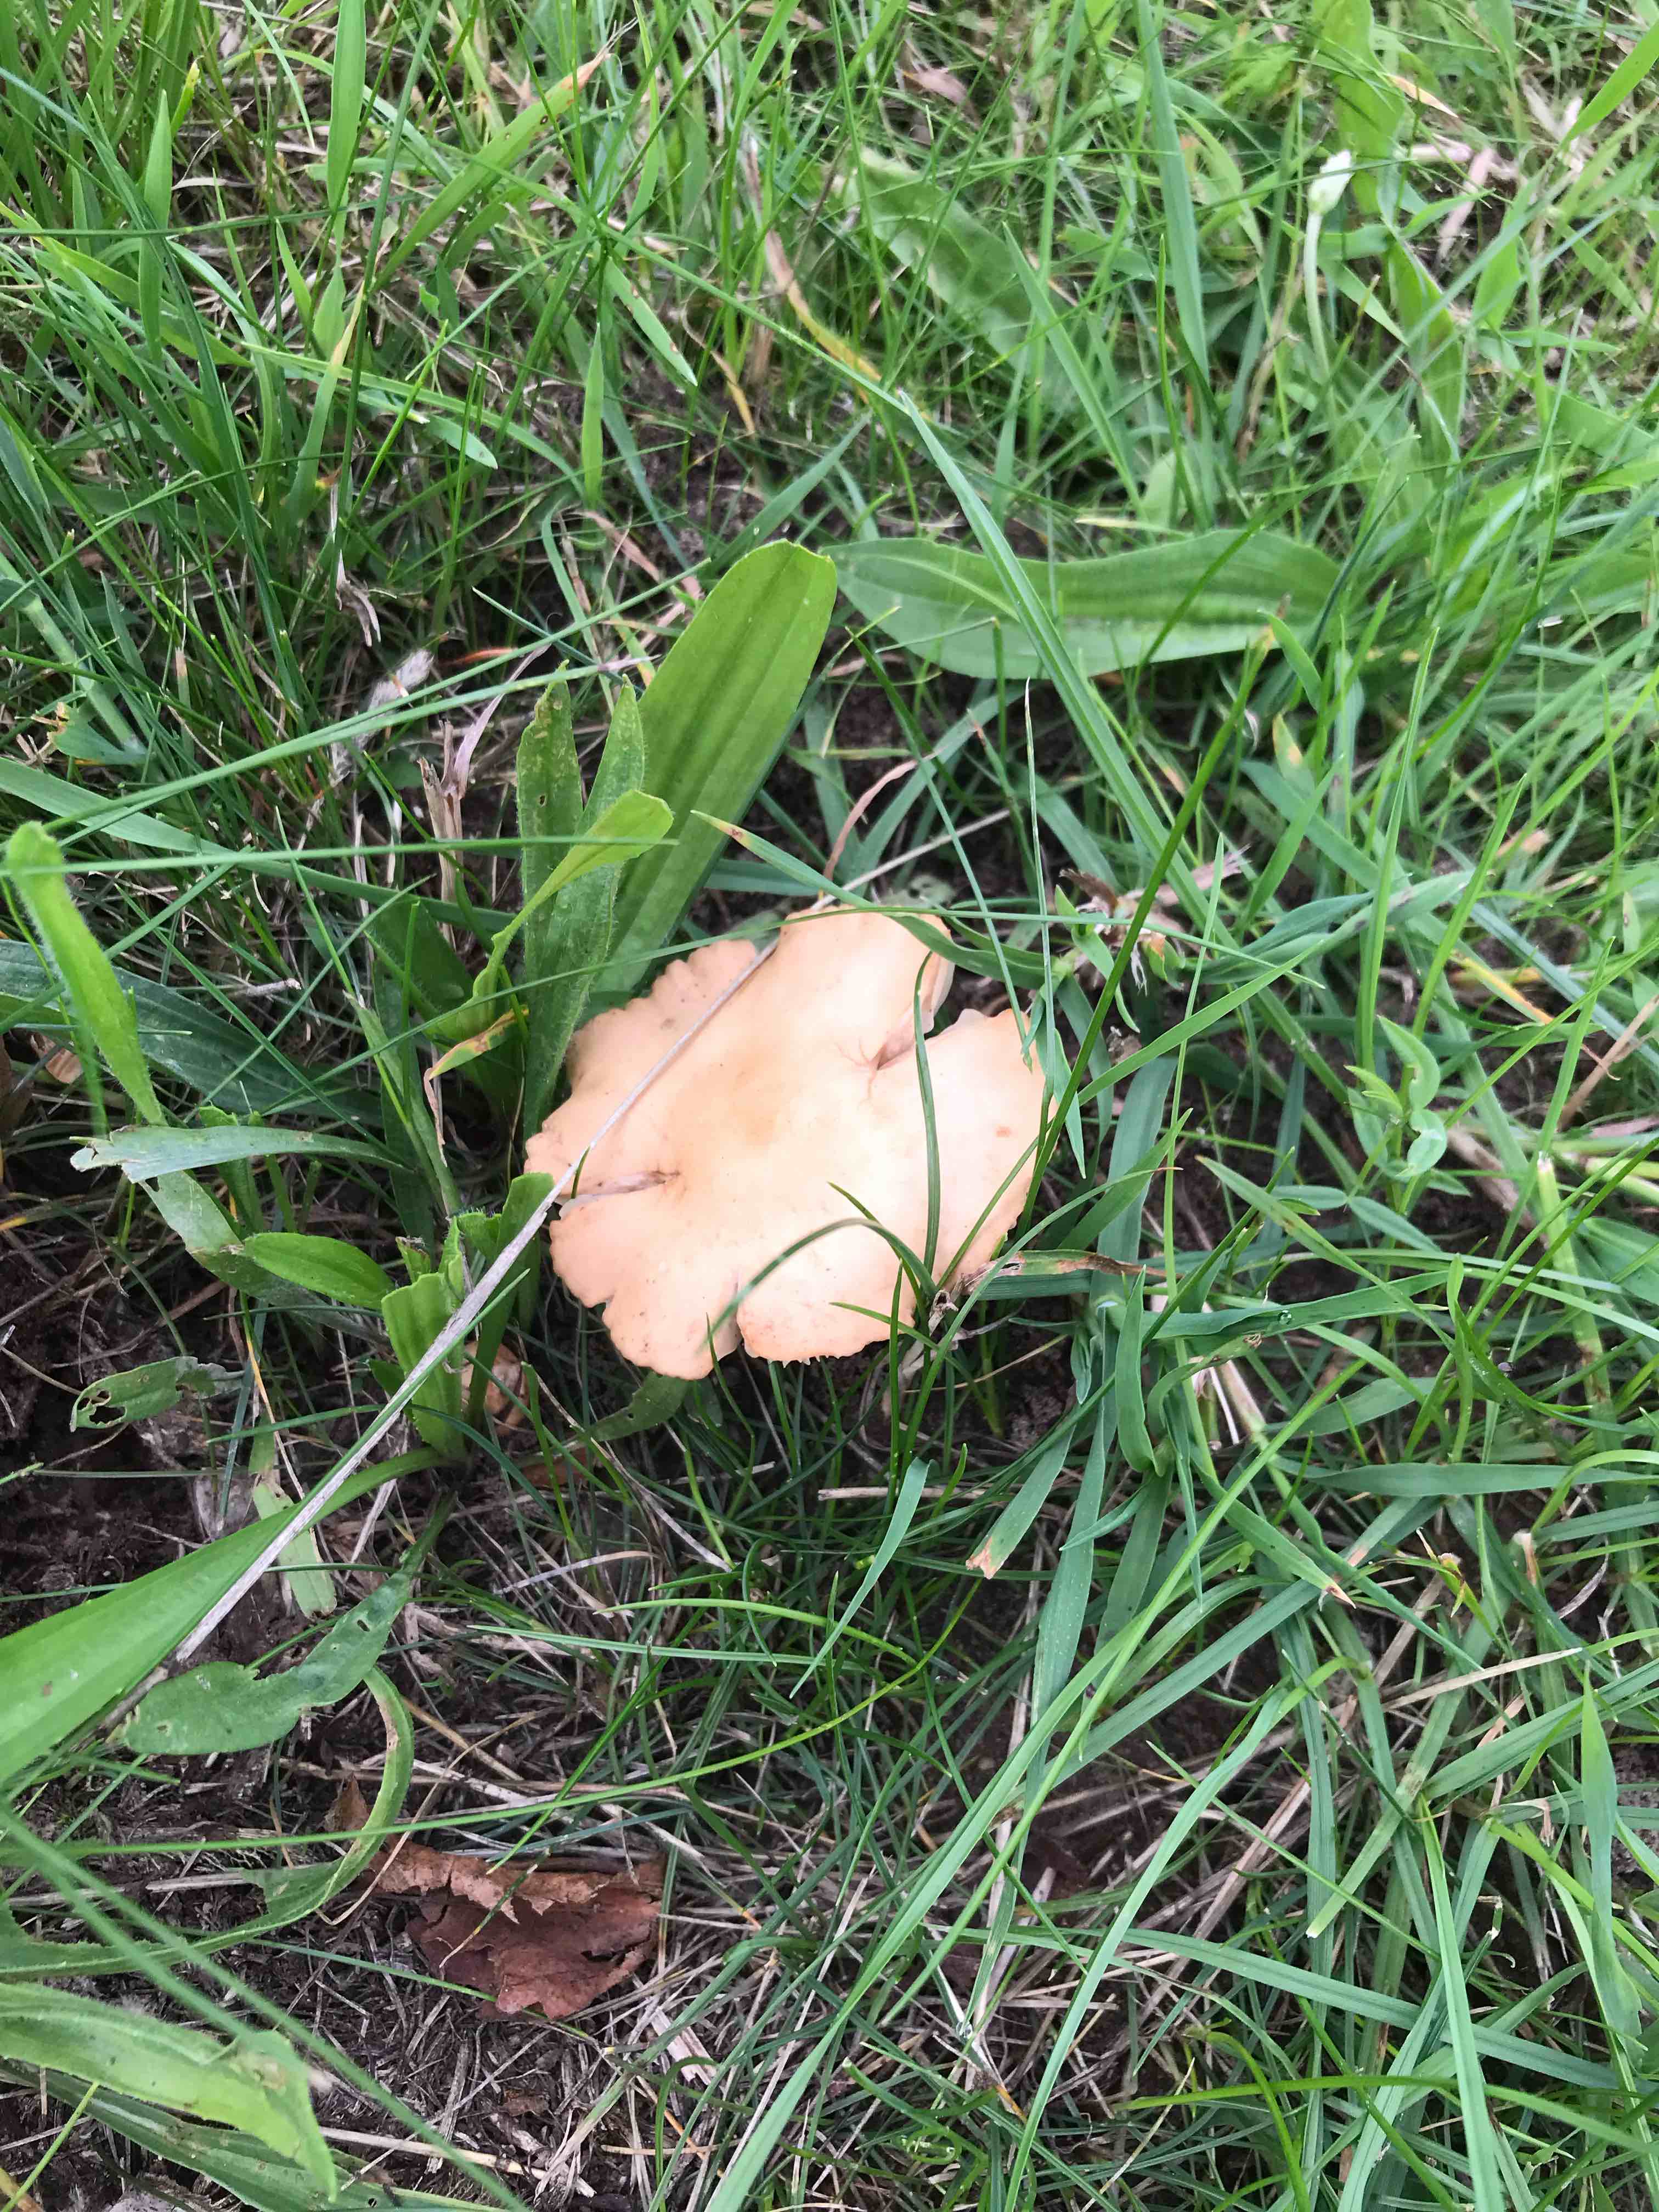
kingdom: Fungi
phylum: Basidiomycota
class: Agaricomycetes
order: Agaricales
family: Marasmiaceae
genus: Marasmius
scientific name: Marasmius oreades
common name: elledans-bruskhat
